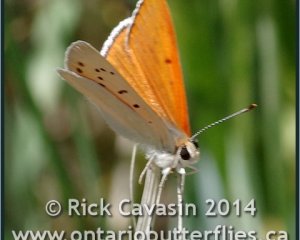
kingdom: Animalia
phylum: Arthropoda
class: Insecta
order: Lepidoptera
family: Sesiidae
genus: Sesia
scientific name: Sesia Lycaena rubidus
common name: Ruddy Copper
